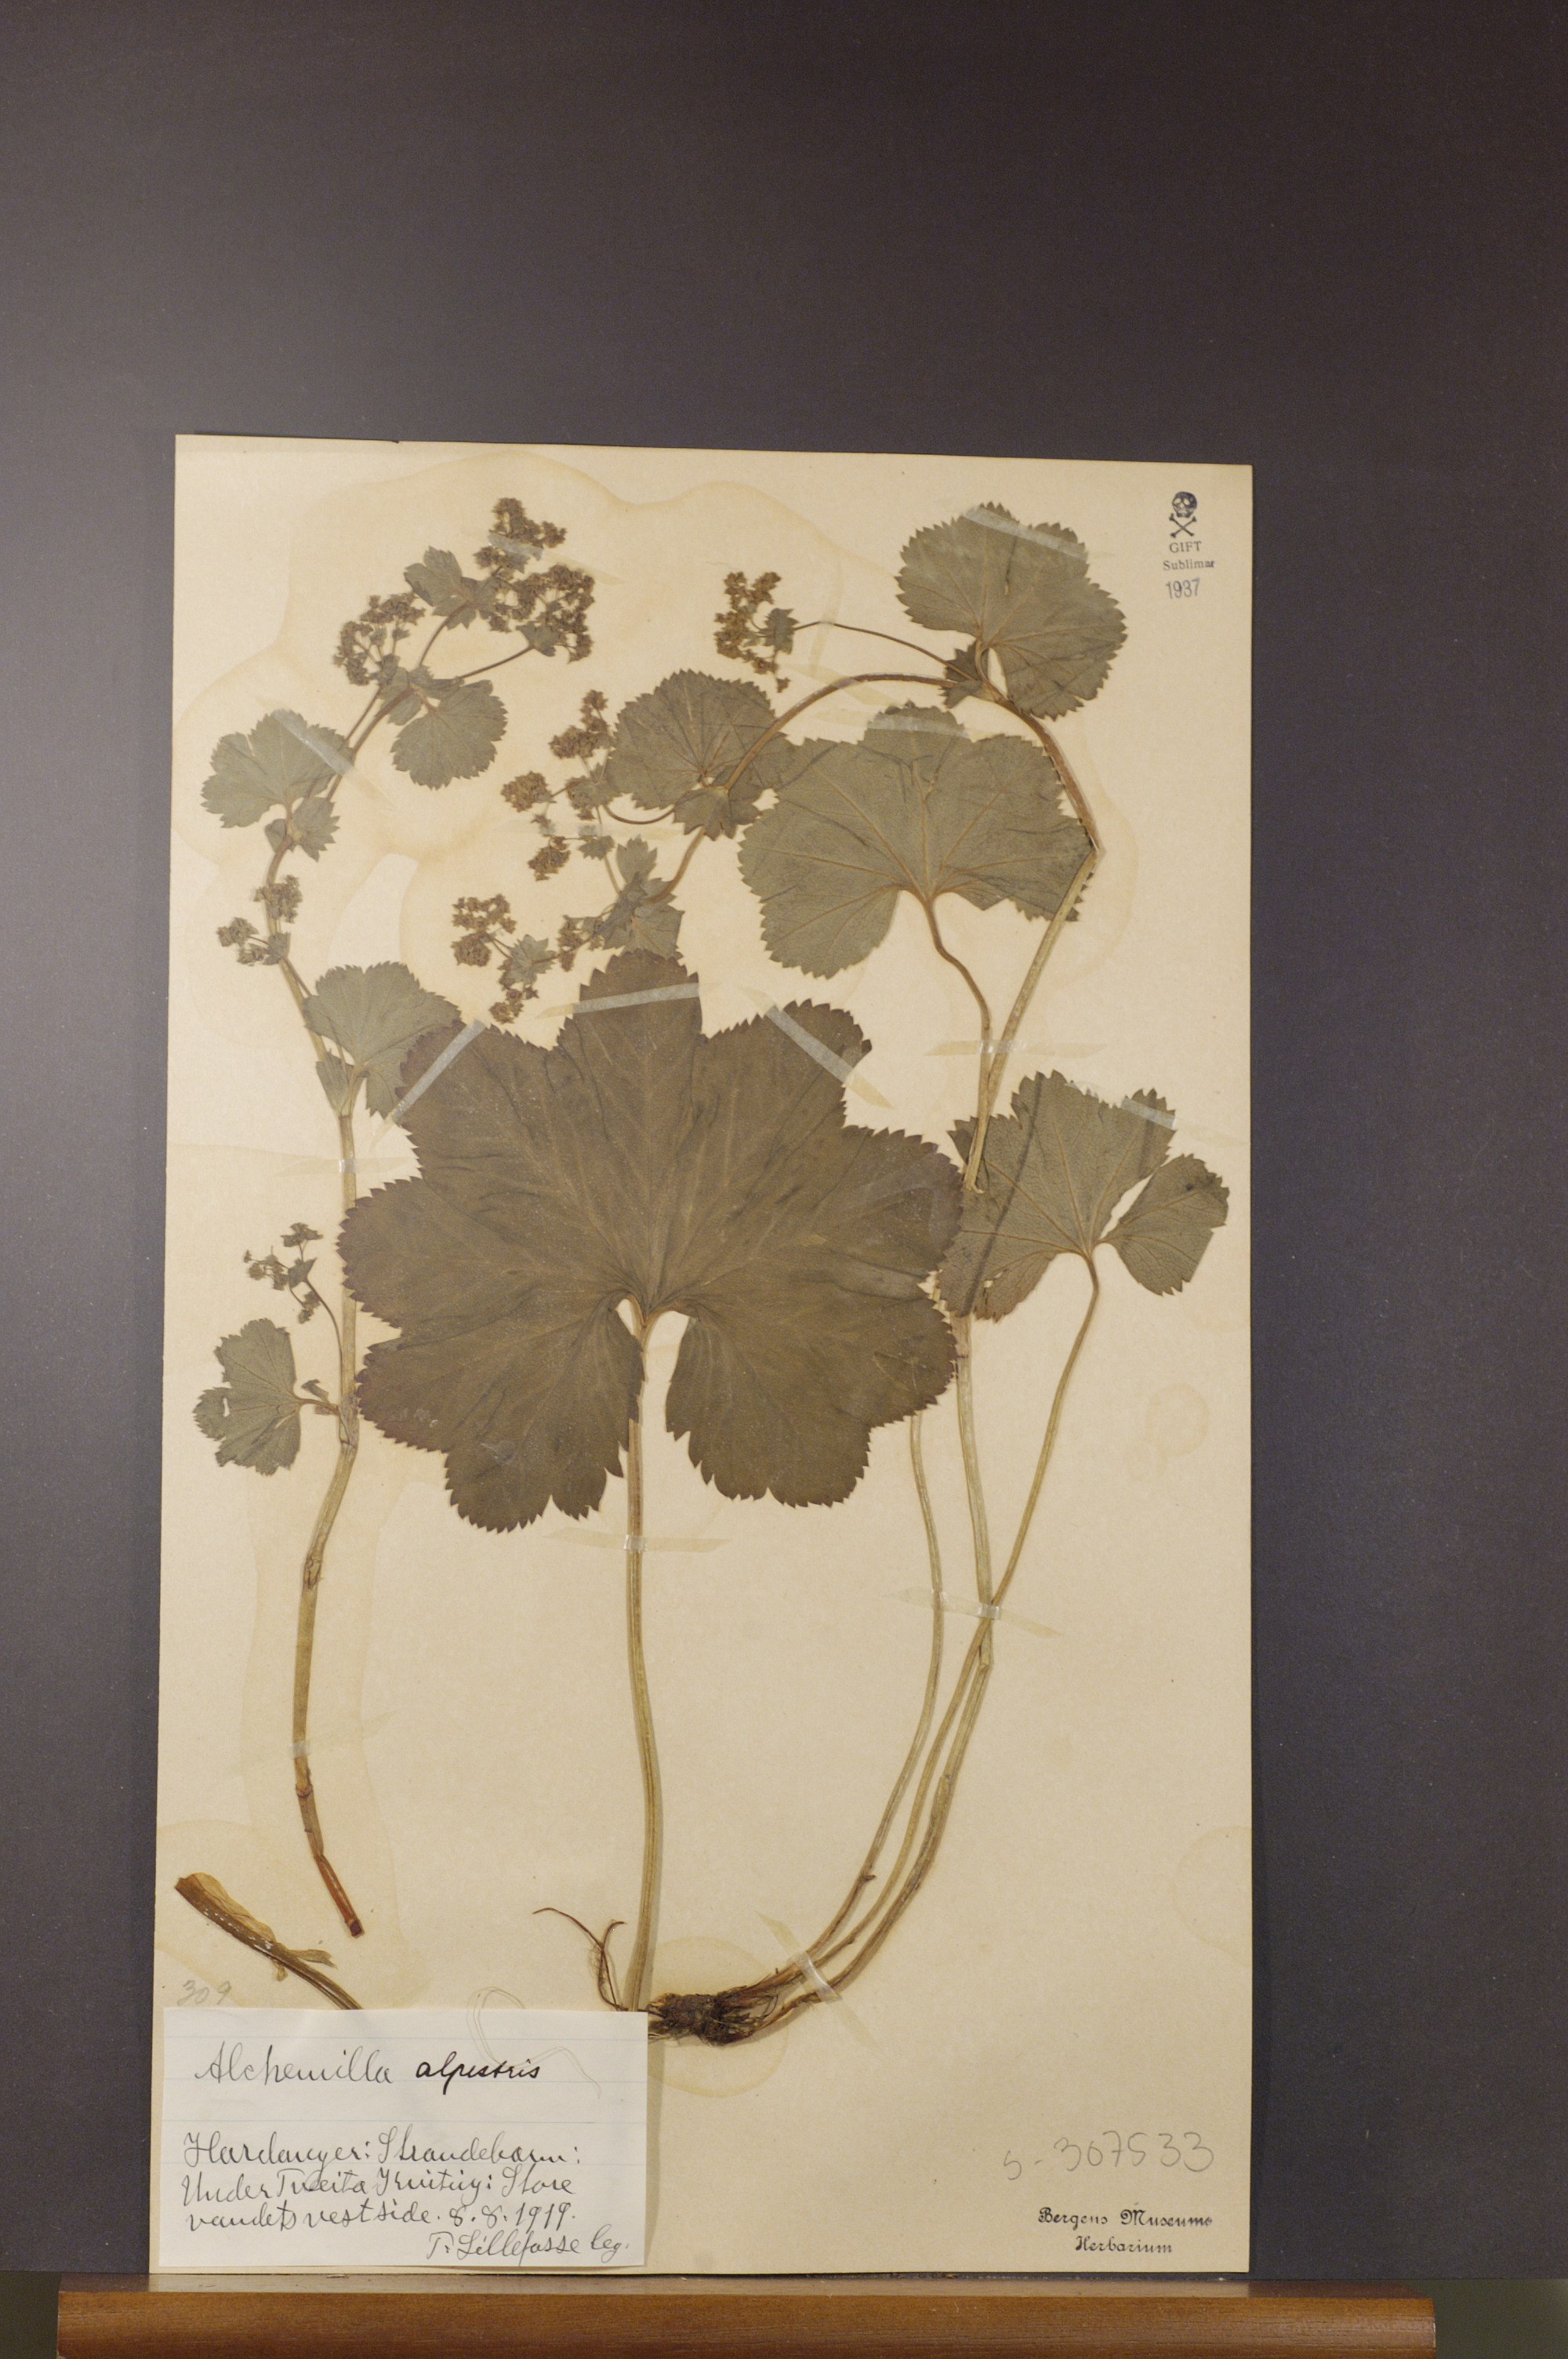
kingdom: Plantae
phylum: Tracheophyta
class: Magnoliopsida
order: Rosales
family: Rosaceae
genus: Alchemilla
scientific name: Alchemilla glabra
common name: Smooth lady's-mantle
